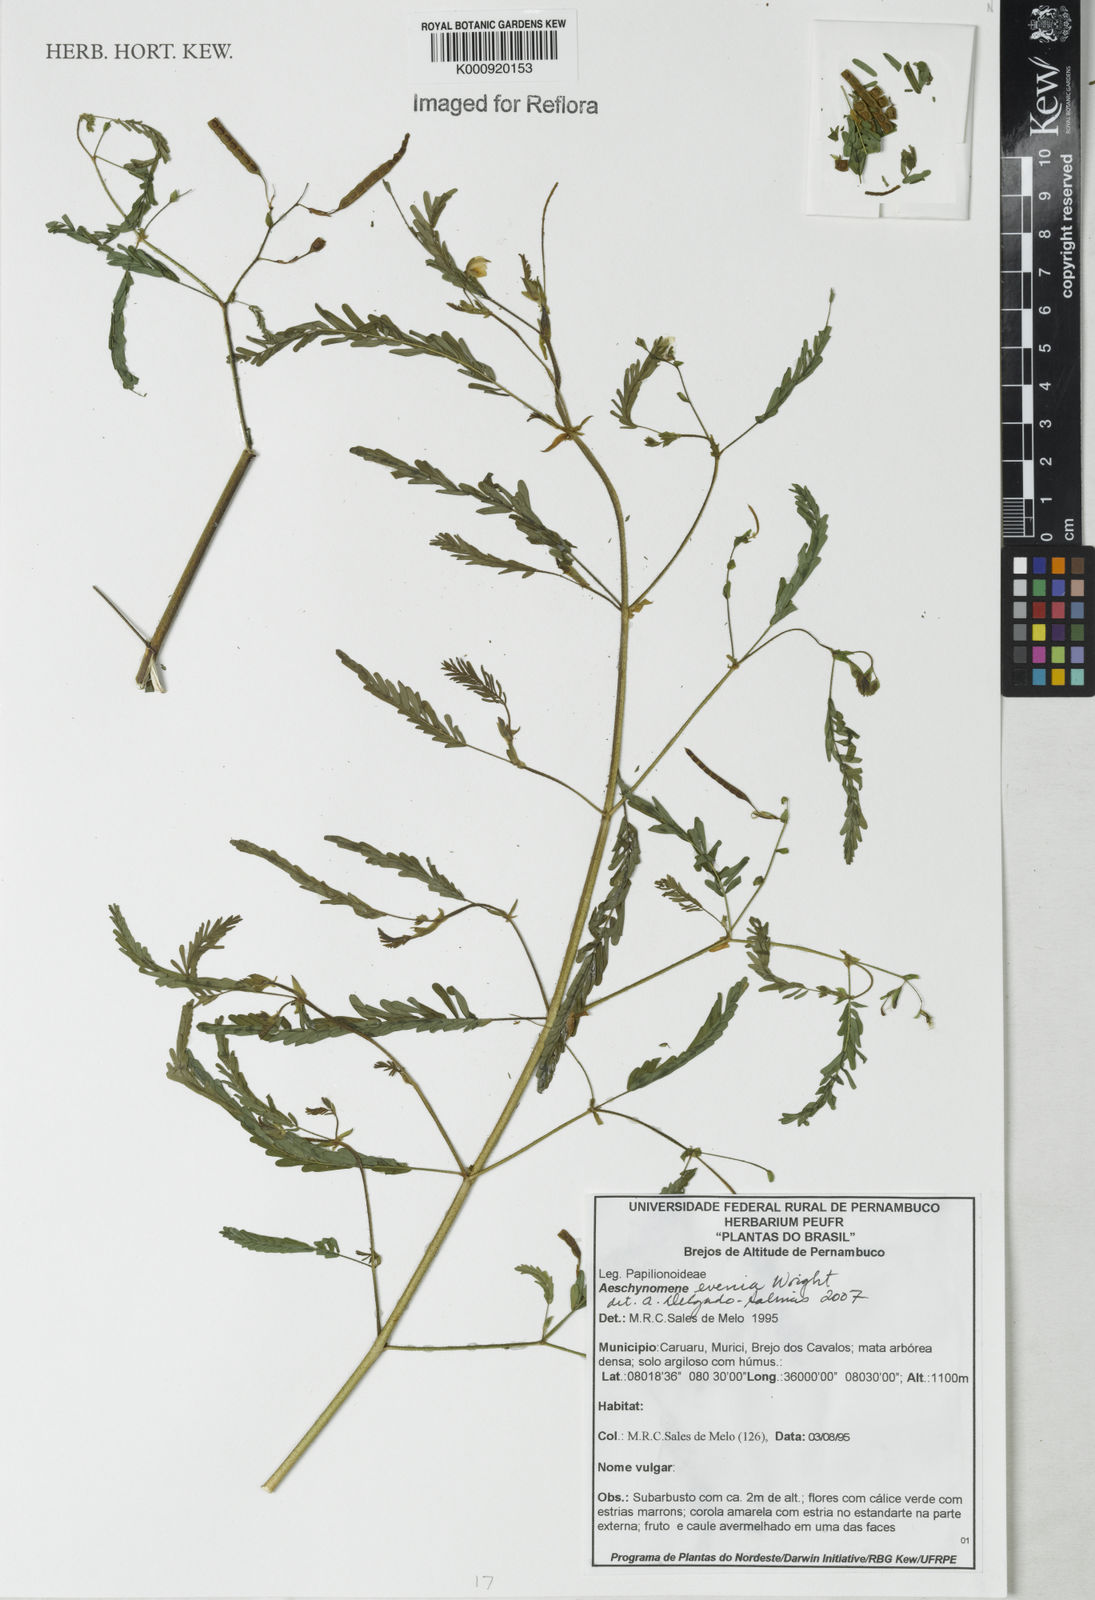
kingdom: Plantae
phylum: Tracheophyta
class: Magnoliopsida
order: Fabales
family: Fabaceae
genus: Aeschynomene
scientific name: Aeschynomene evenia
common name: Shrubby jointvetch
